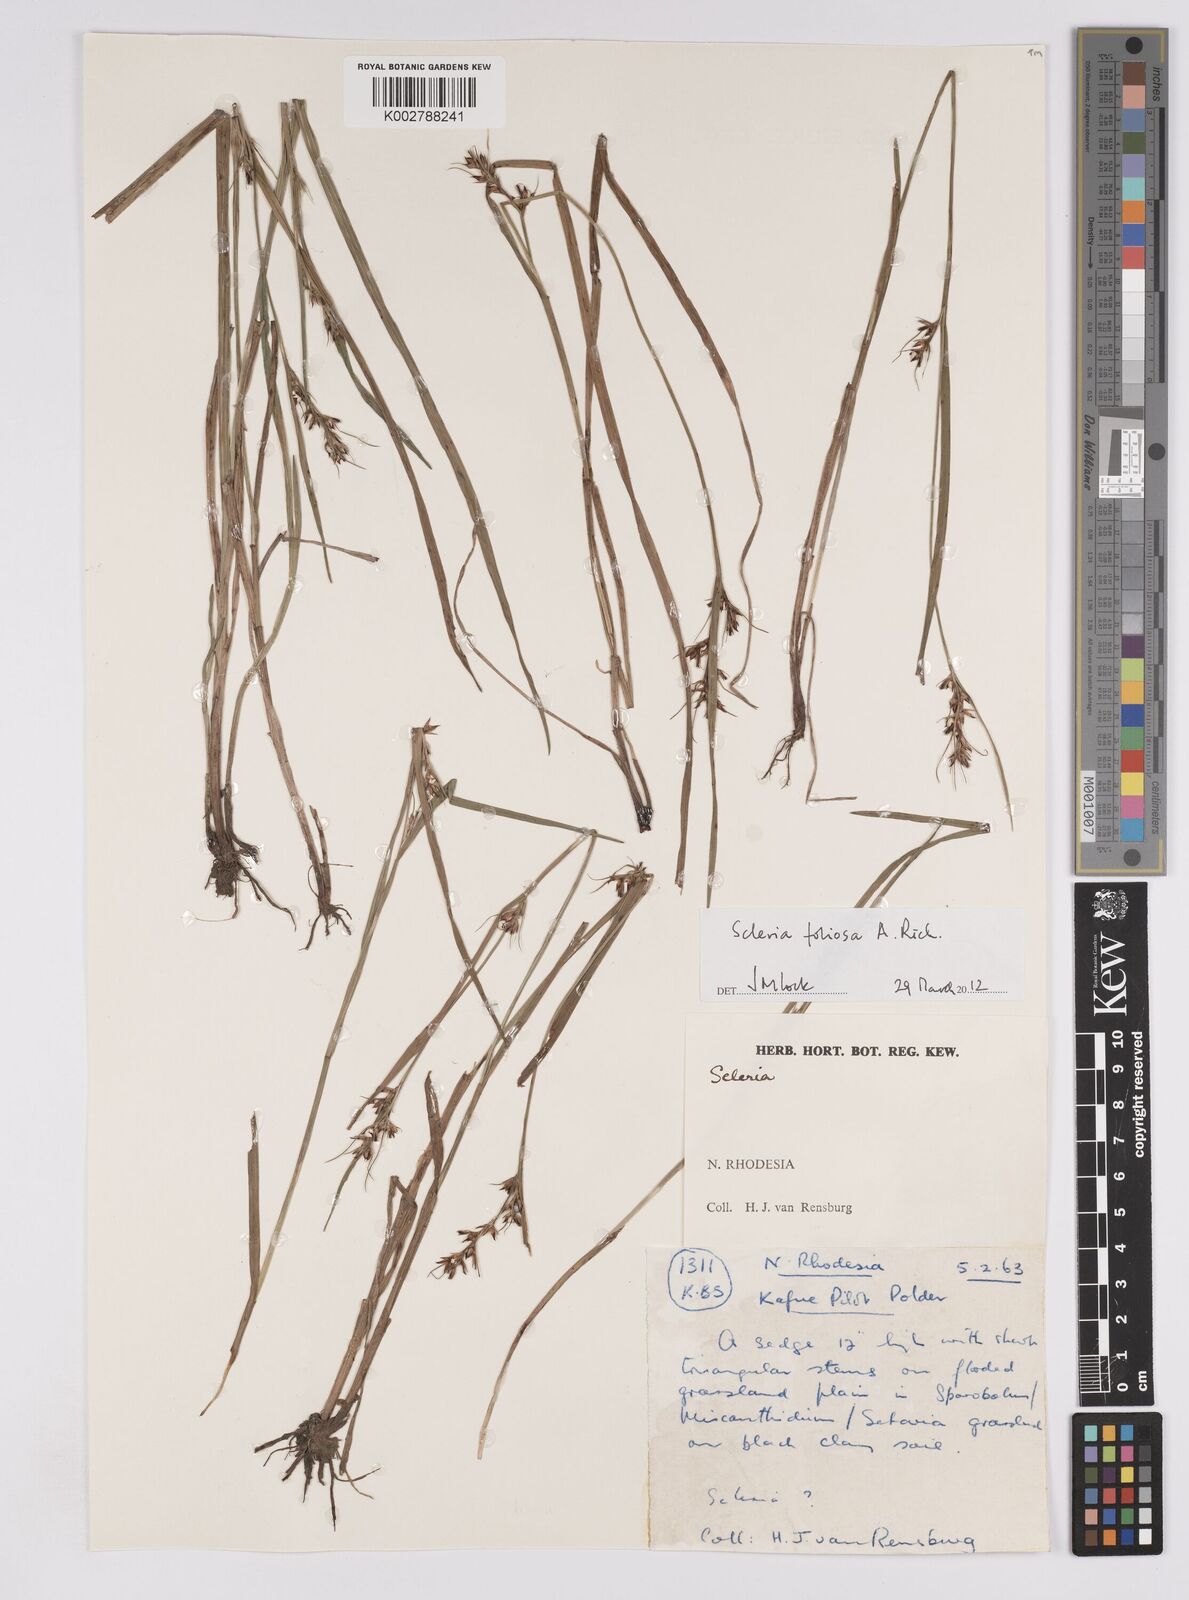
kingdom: Plantae
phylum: Tracheophyta
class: Liliopsida
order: Poales
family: Cyperaceae
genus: Scleria
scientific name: Scleria foliosa
